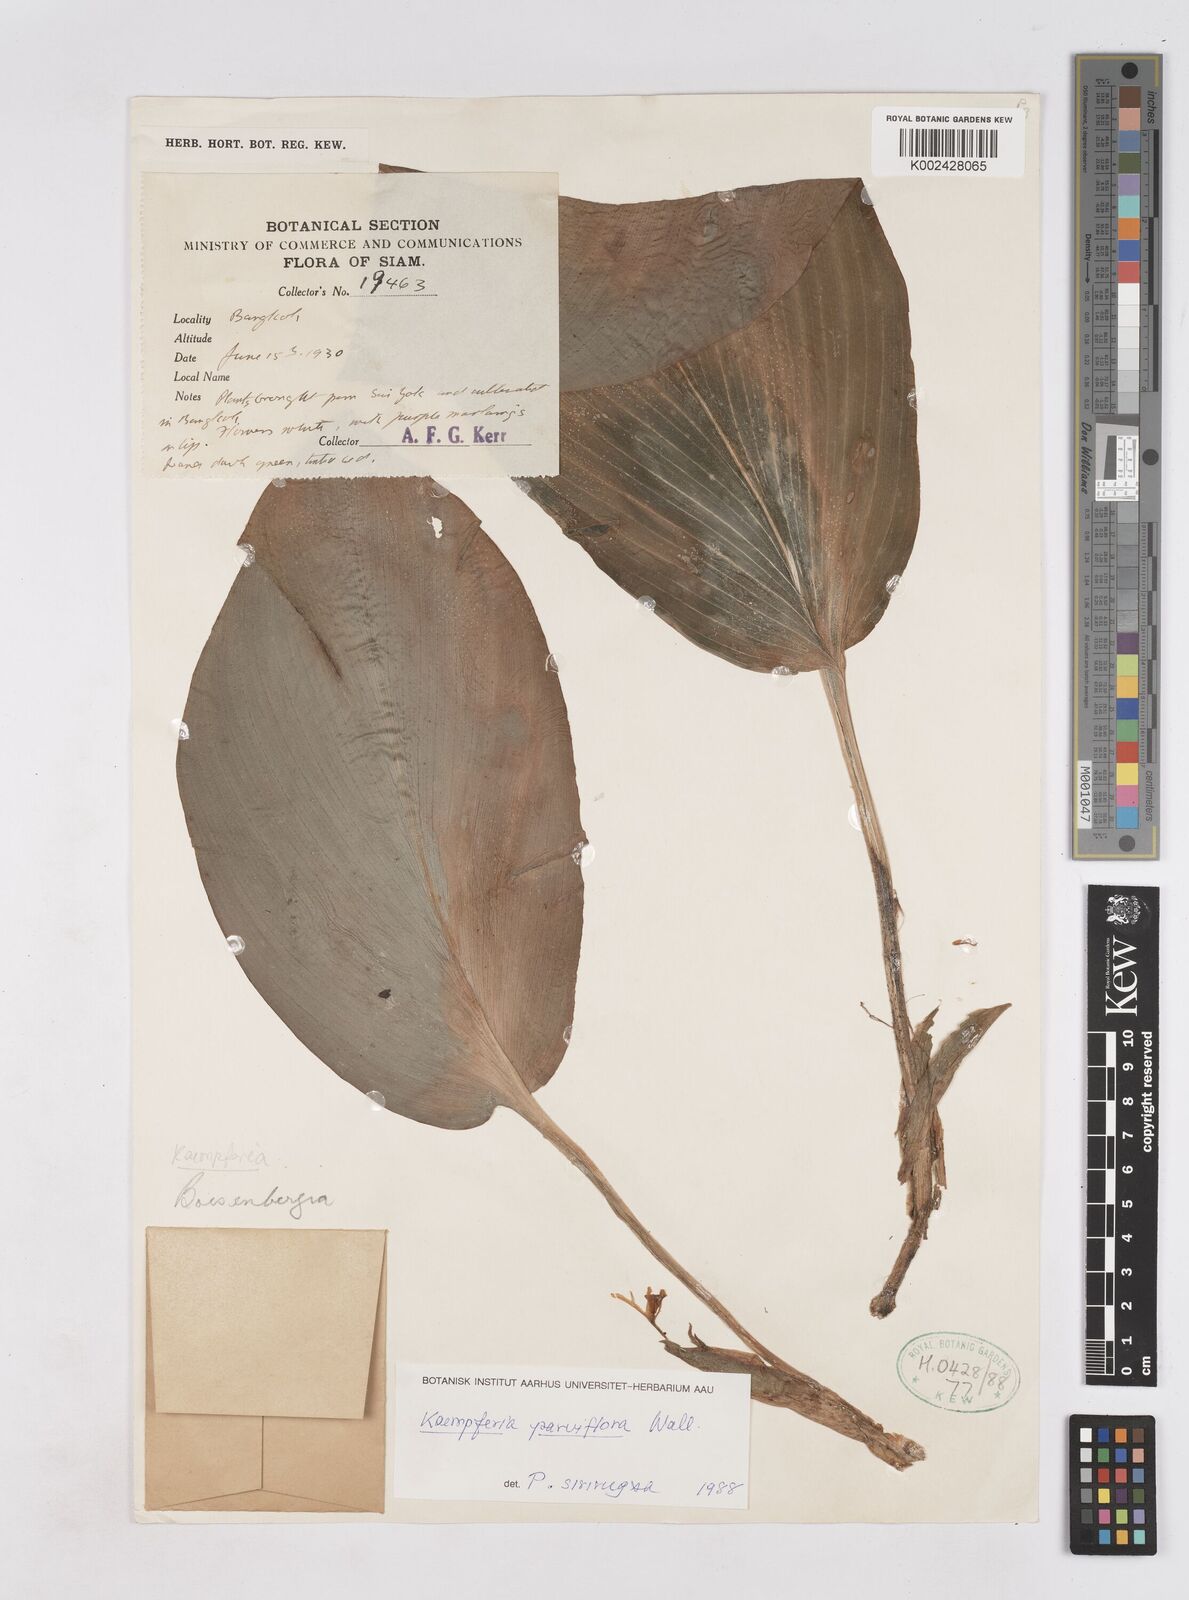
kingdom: Plantae
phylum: Tracheophyta
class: Liliopsida
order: Zingiberales
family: Zingiberaceae
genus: Kaempferia
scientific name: Kaempferia parviflora
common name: Black galingale
